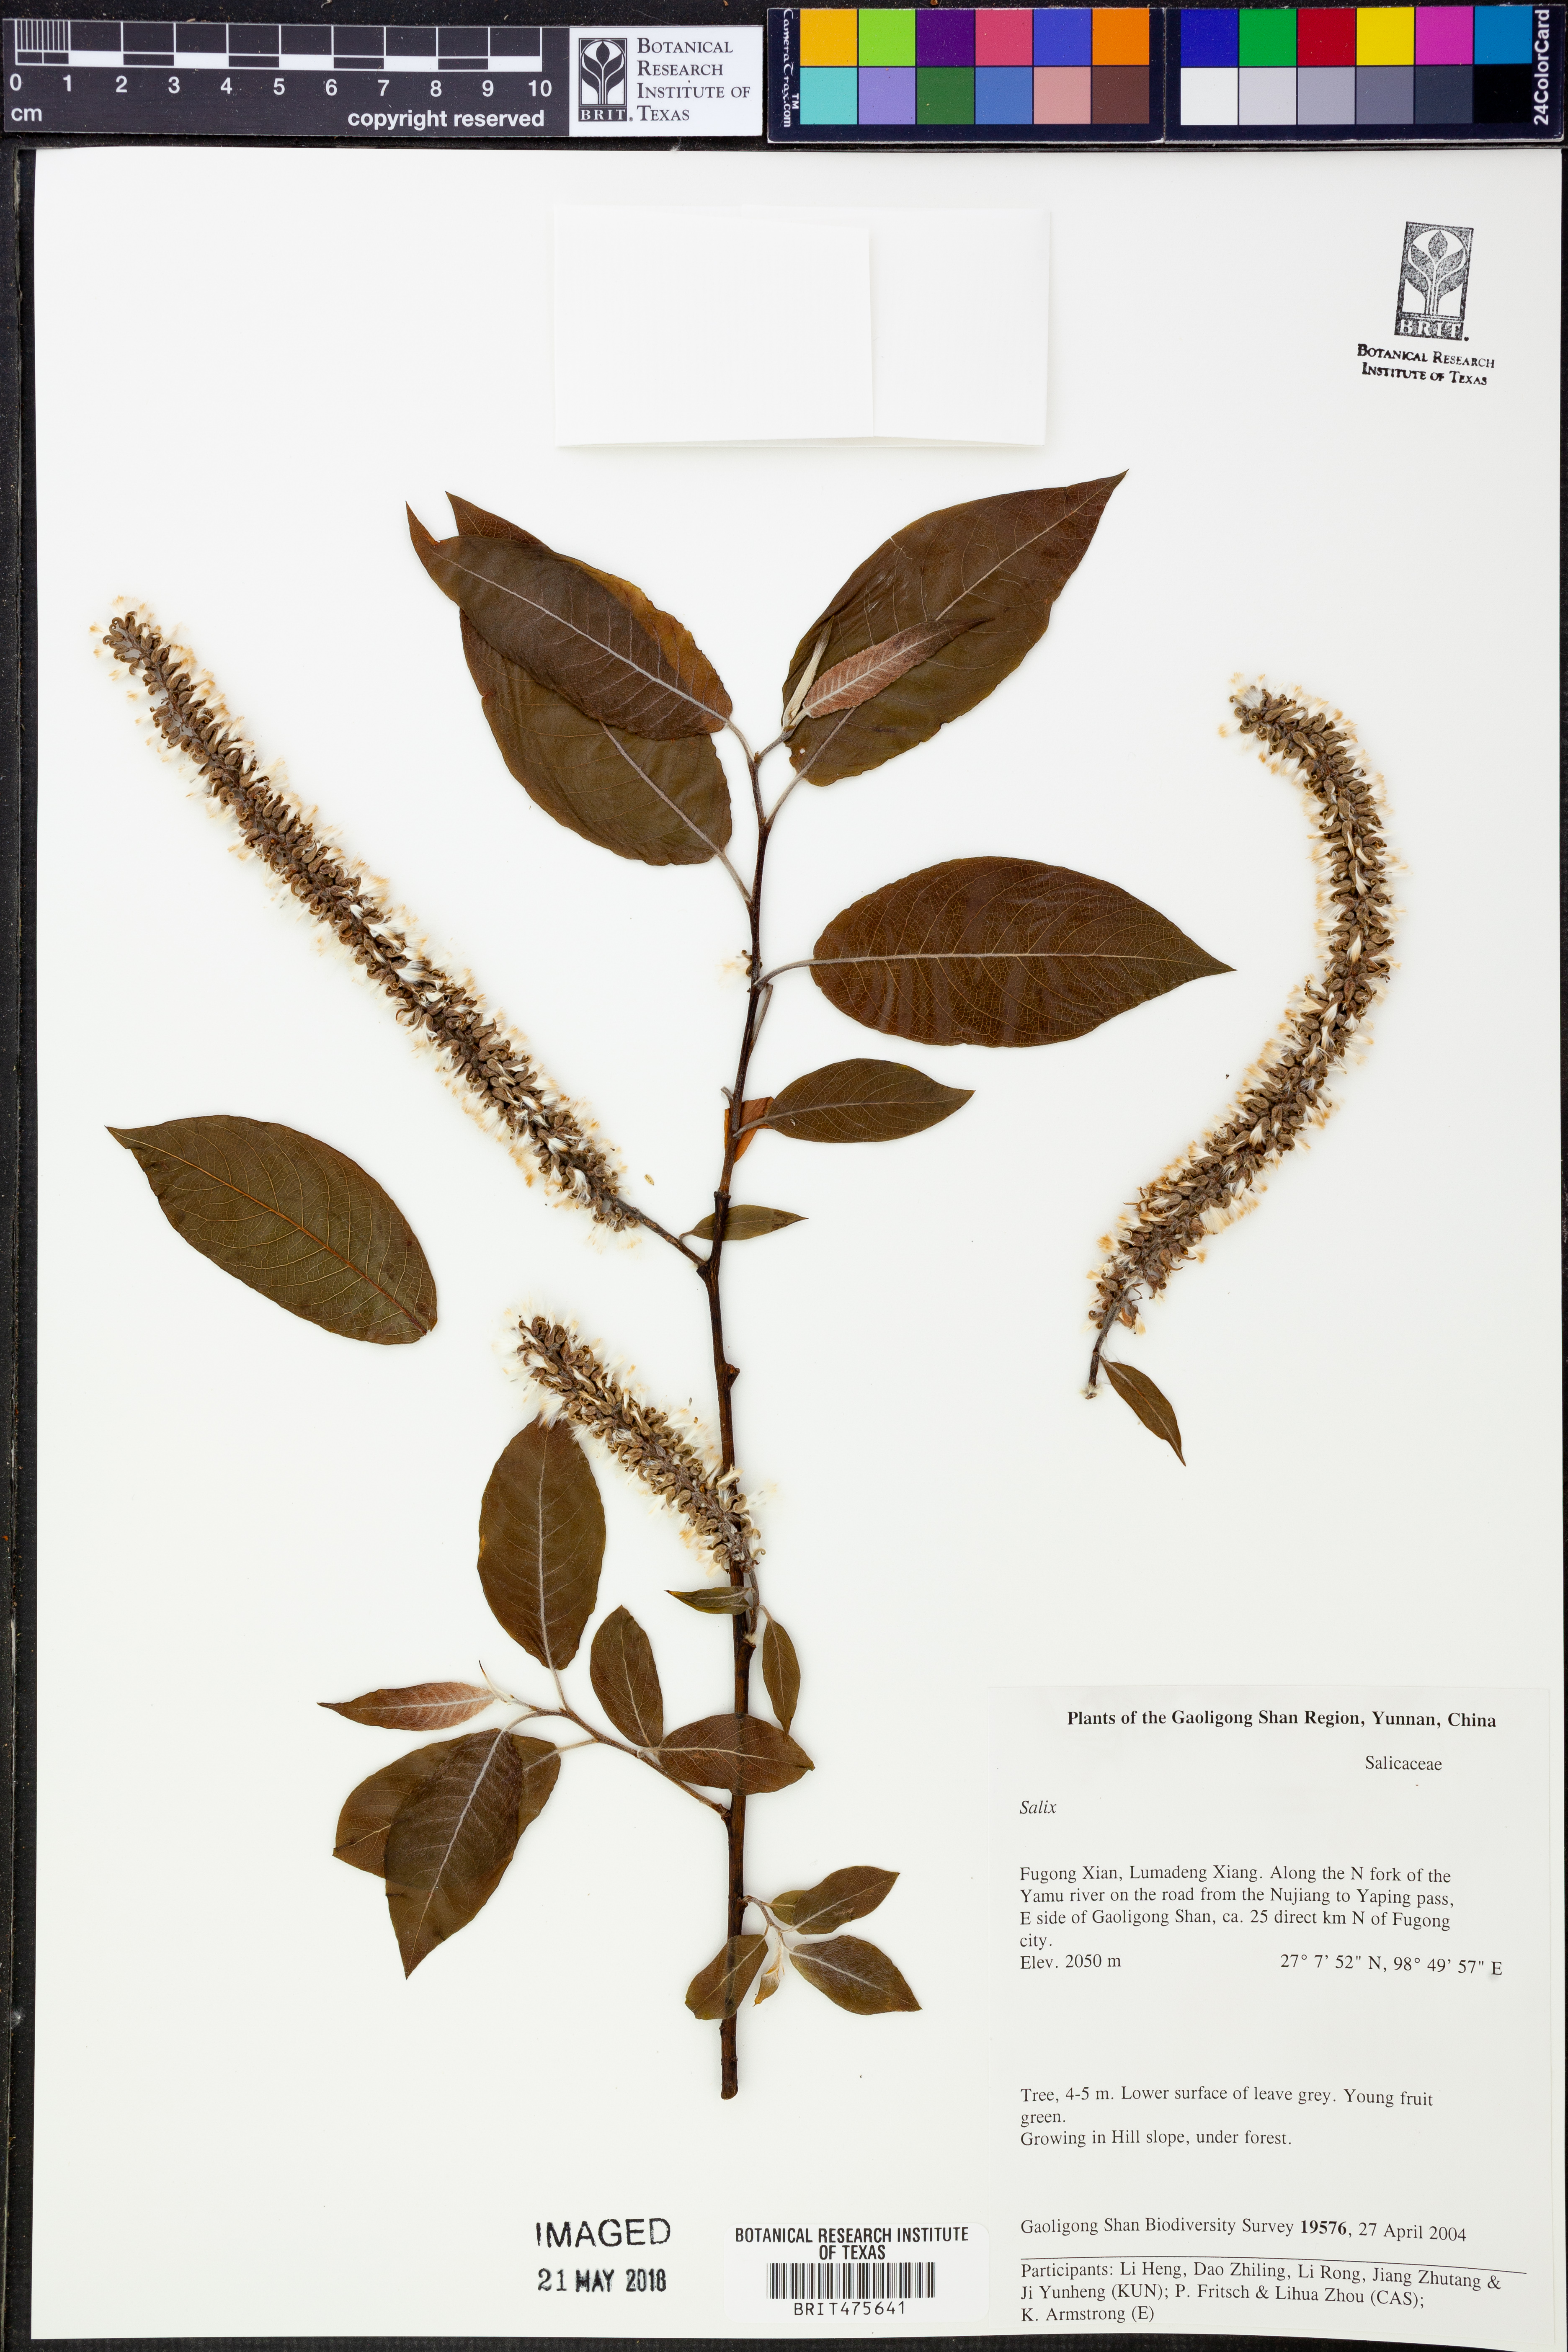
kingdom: Plantae
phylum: Tracheophyta
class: Magnoliopsida
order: Malpighiales
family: Salicaceae
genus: Salix
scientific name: Salix
